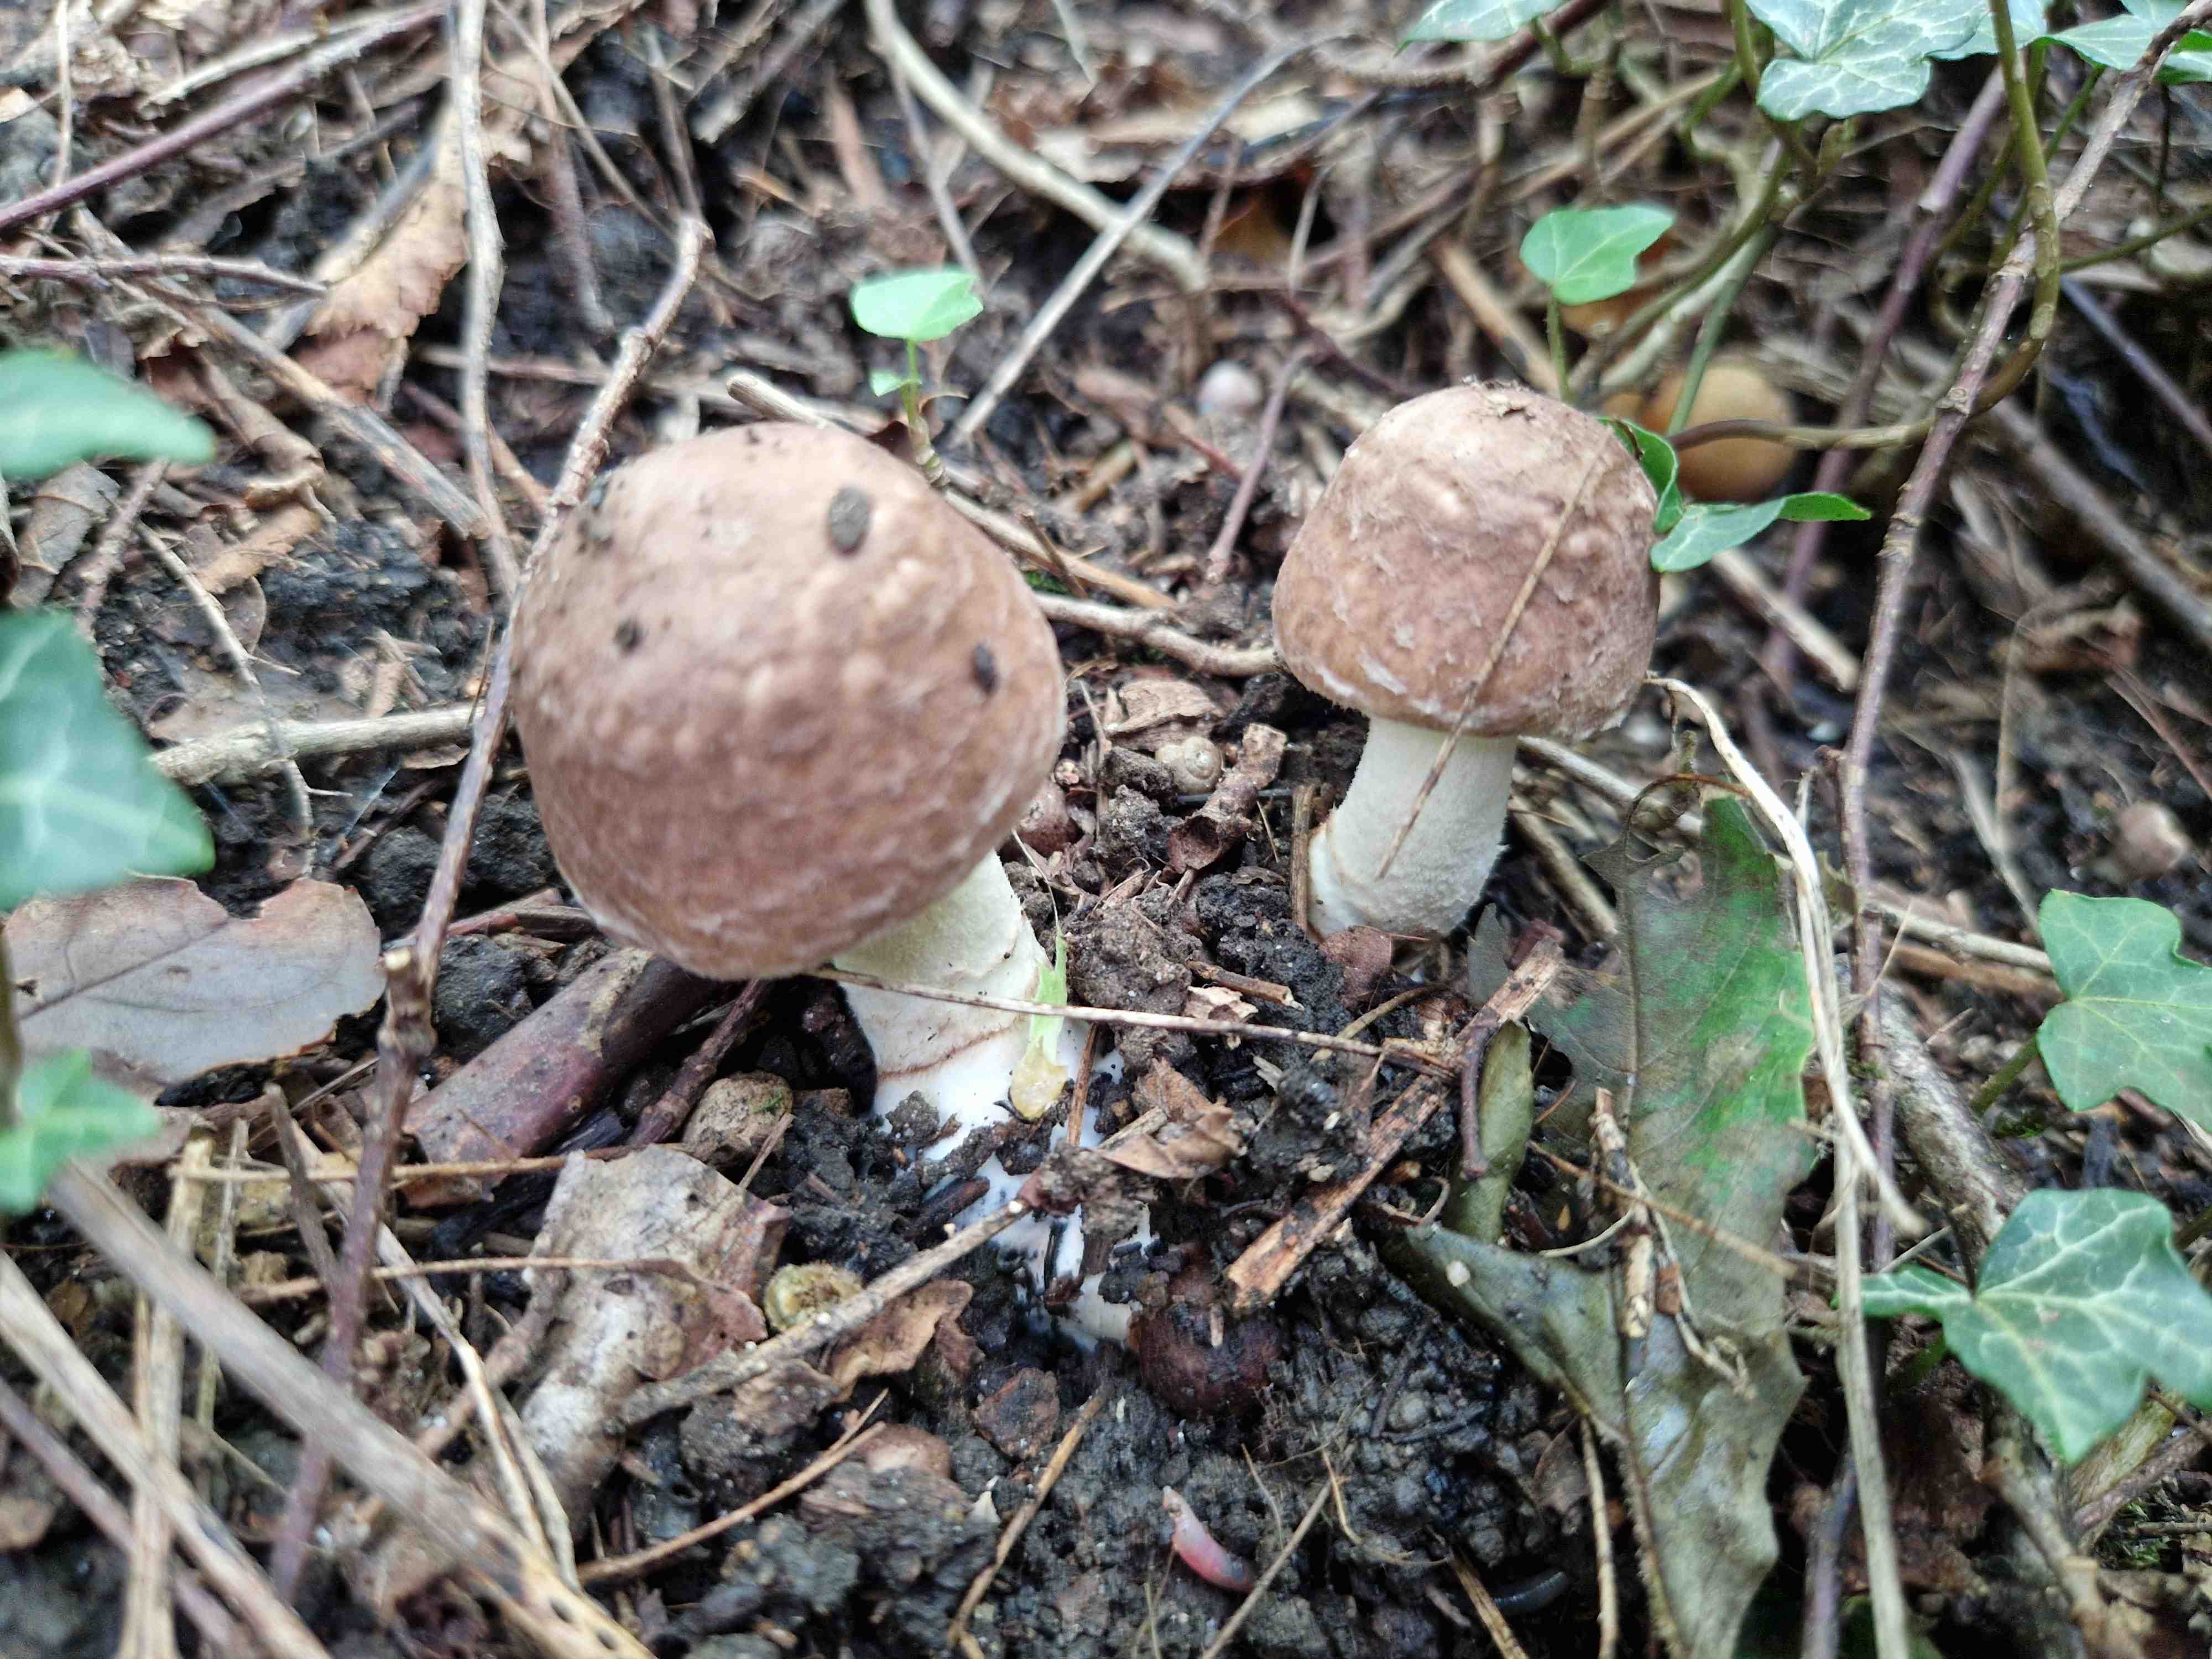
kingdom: Fungi
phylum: Basidiomycota
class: Agaricomycetes
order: Agaricales
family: Agaricaceae
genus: Agaricus
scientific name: Agaricus
